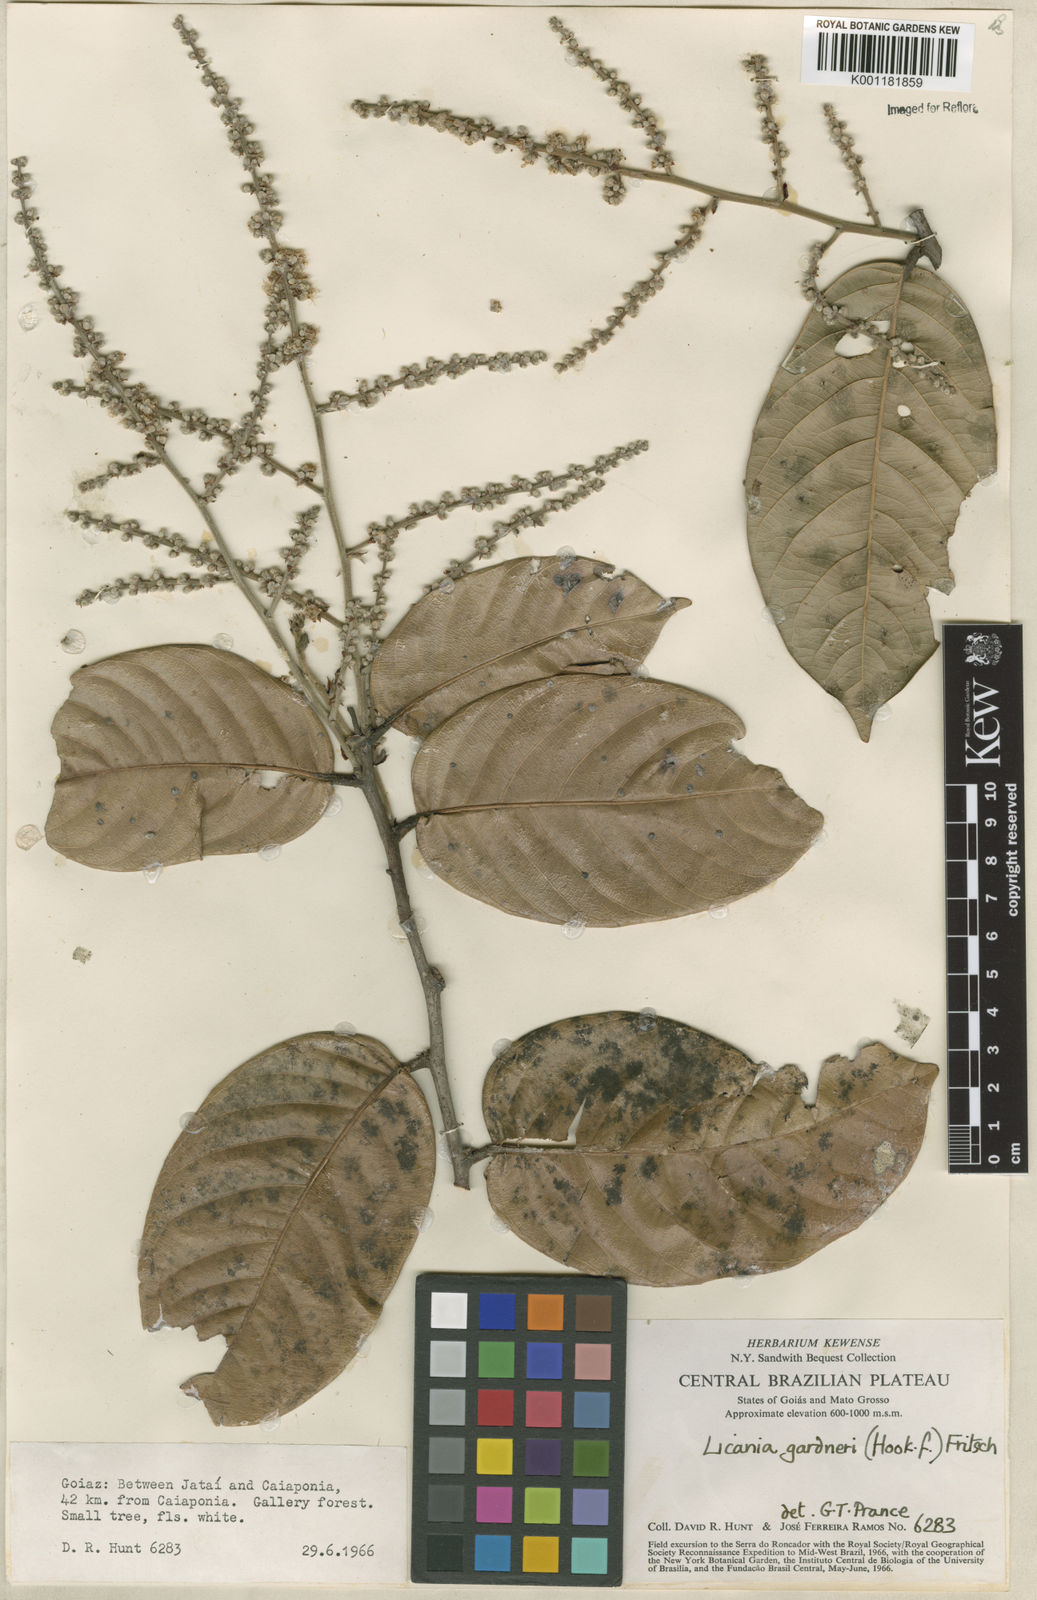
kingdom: Plantae
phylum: Tracheophyta
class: Magnoliopsida
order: Malpighiales
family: Chrysobalanaceae
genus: Leptobalanus
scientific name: Leptobalanus gardneri
